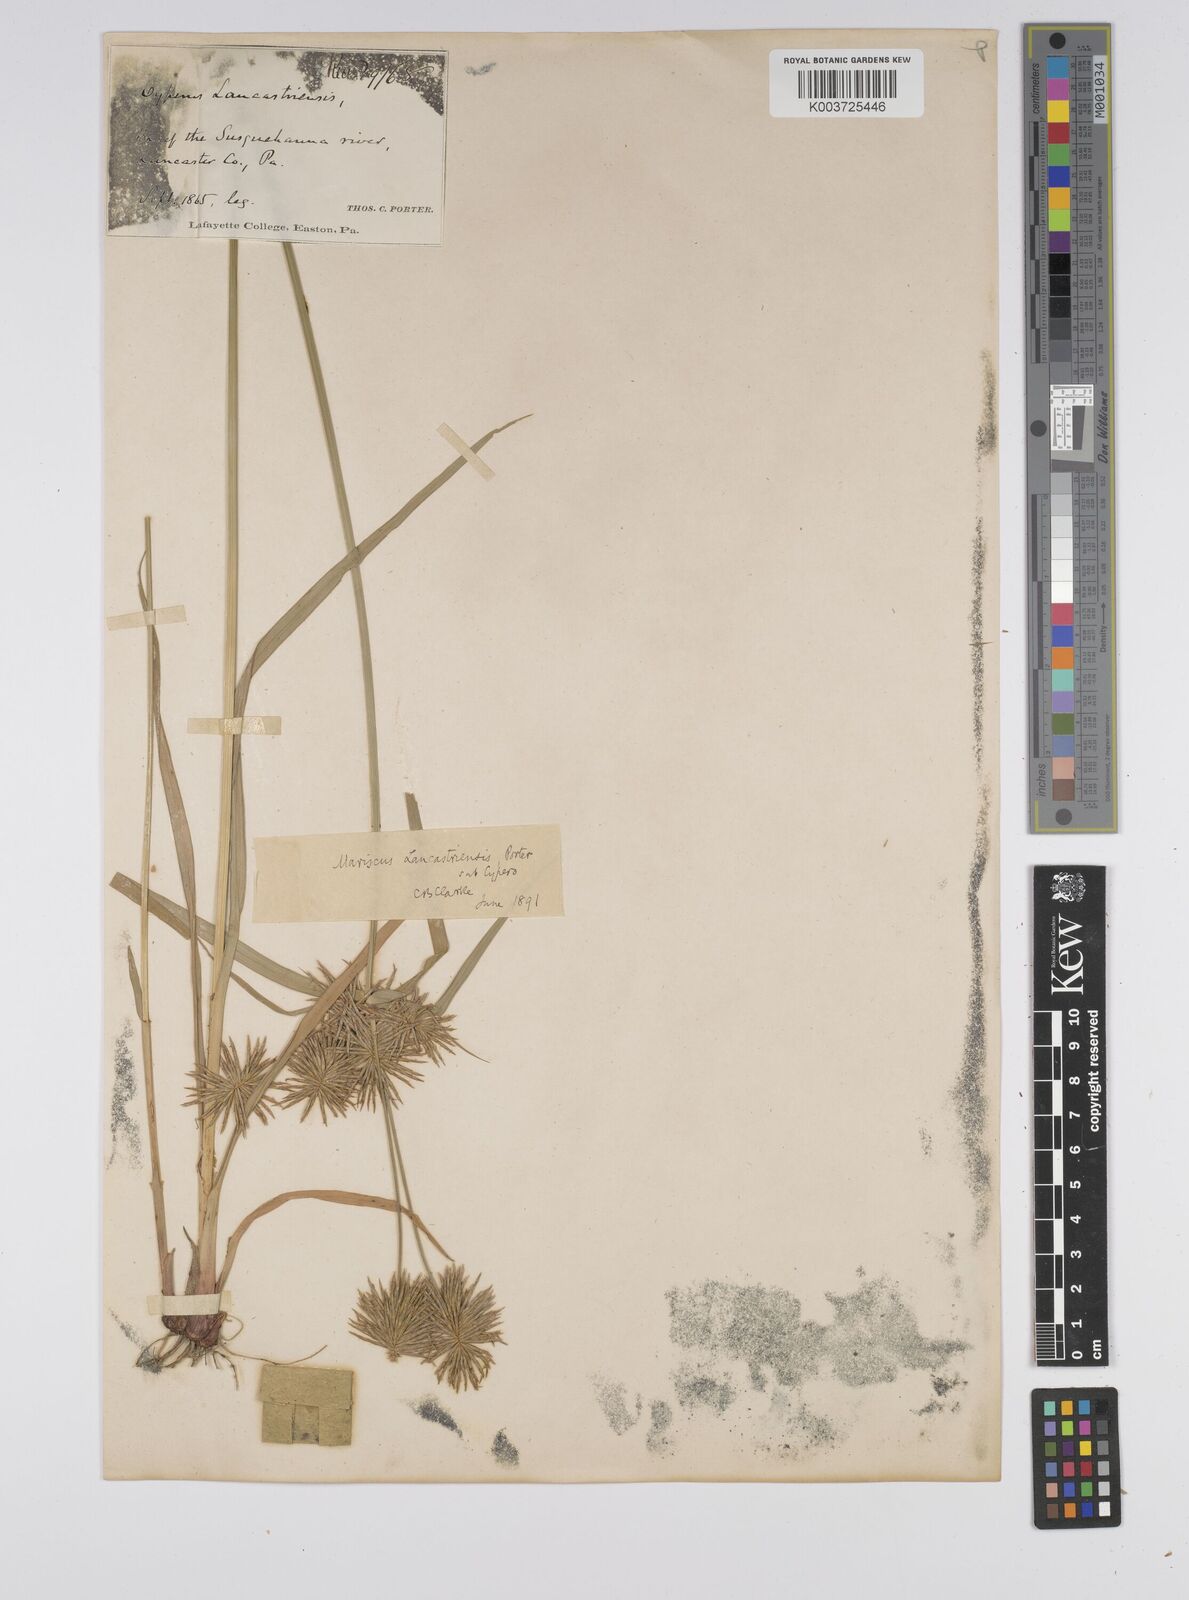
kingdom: Plantae
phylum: Tracheophyta
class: Liliopsida
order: Poales
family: Cyperaceae
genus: Cyperus
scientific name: Cyperus lancastriensis
